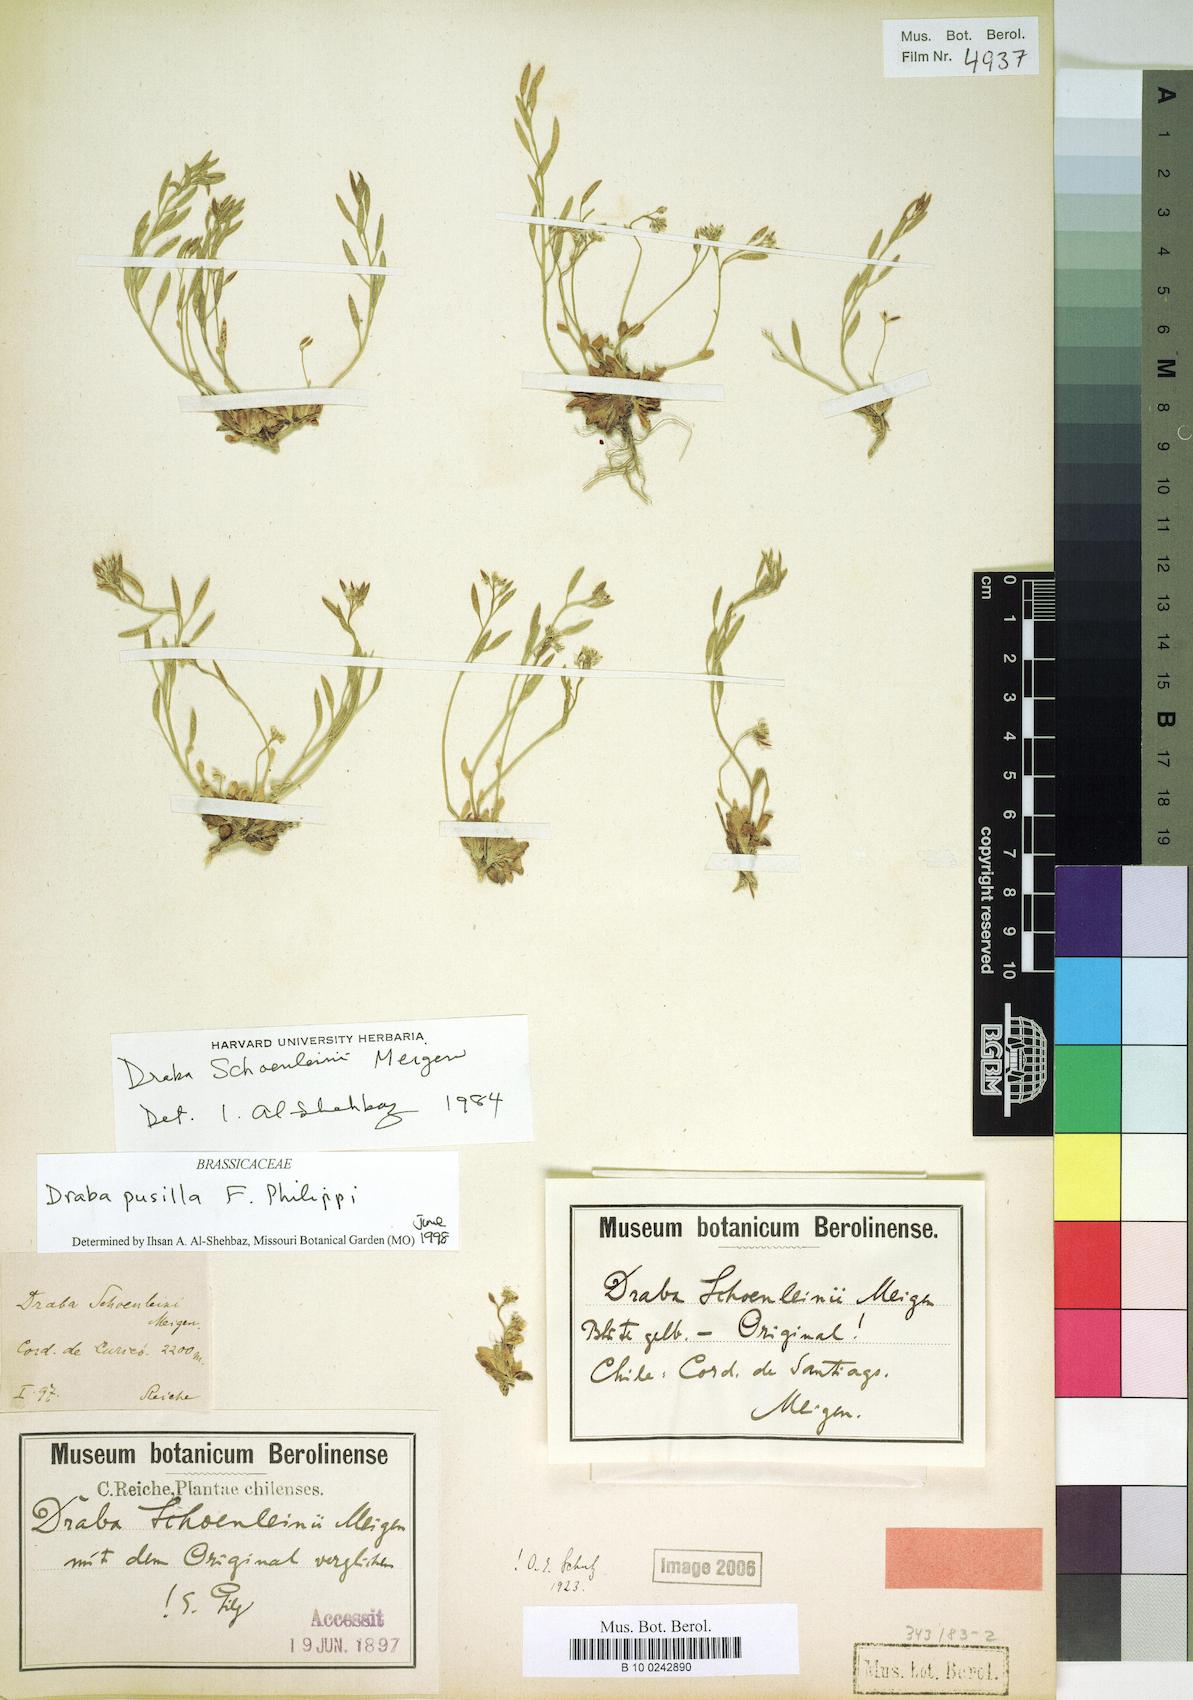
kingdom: Plantae
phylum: Tracheophyta
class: Magnoliopsida
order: Brassicales
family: Brassicaceae
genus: Draba
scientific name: Draba pusilla
